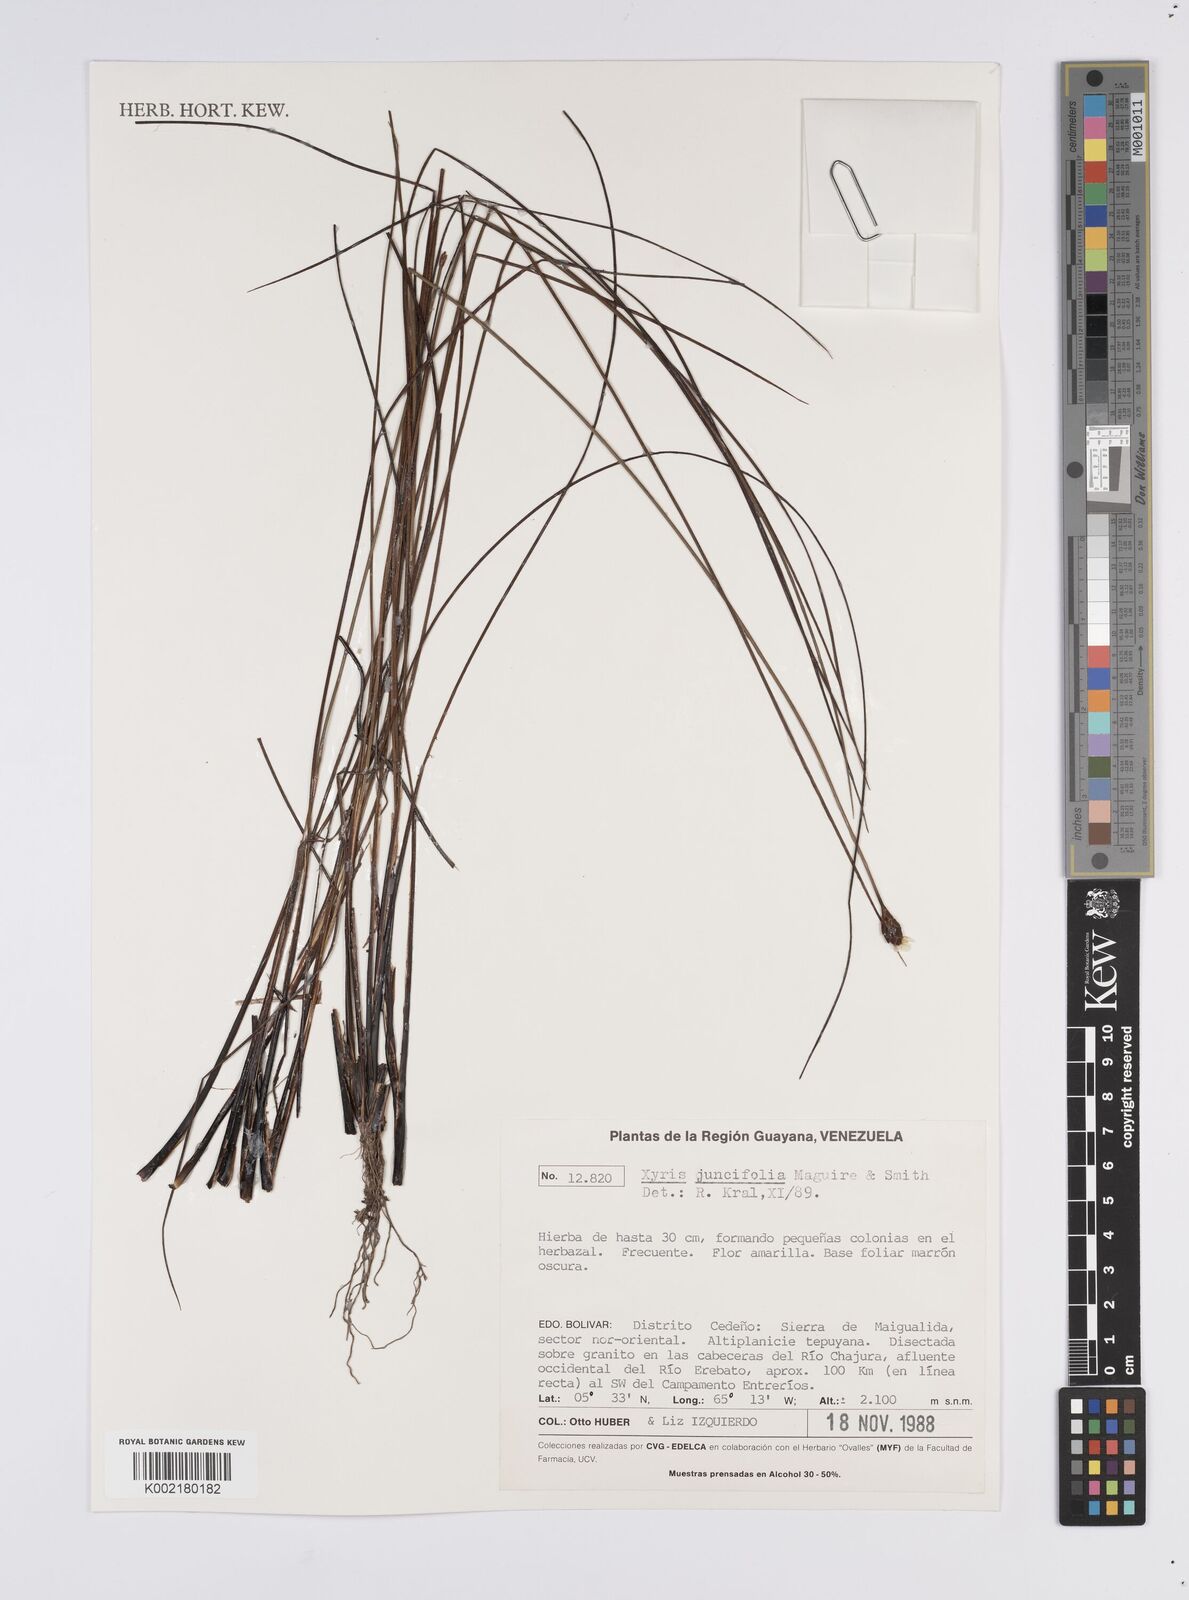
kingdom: Plantae
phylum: Tracheophyta
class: Liliopsida
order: Poales
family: Xyridaceae
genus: Xyris
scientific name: Xyris juncifolia
